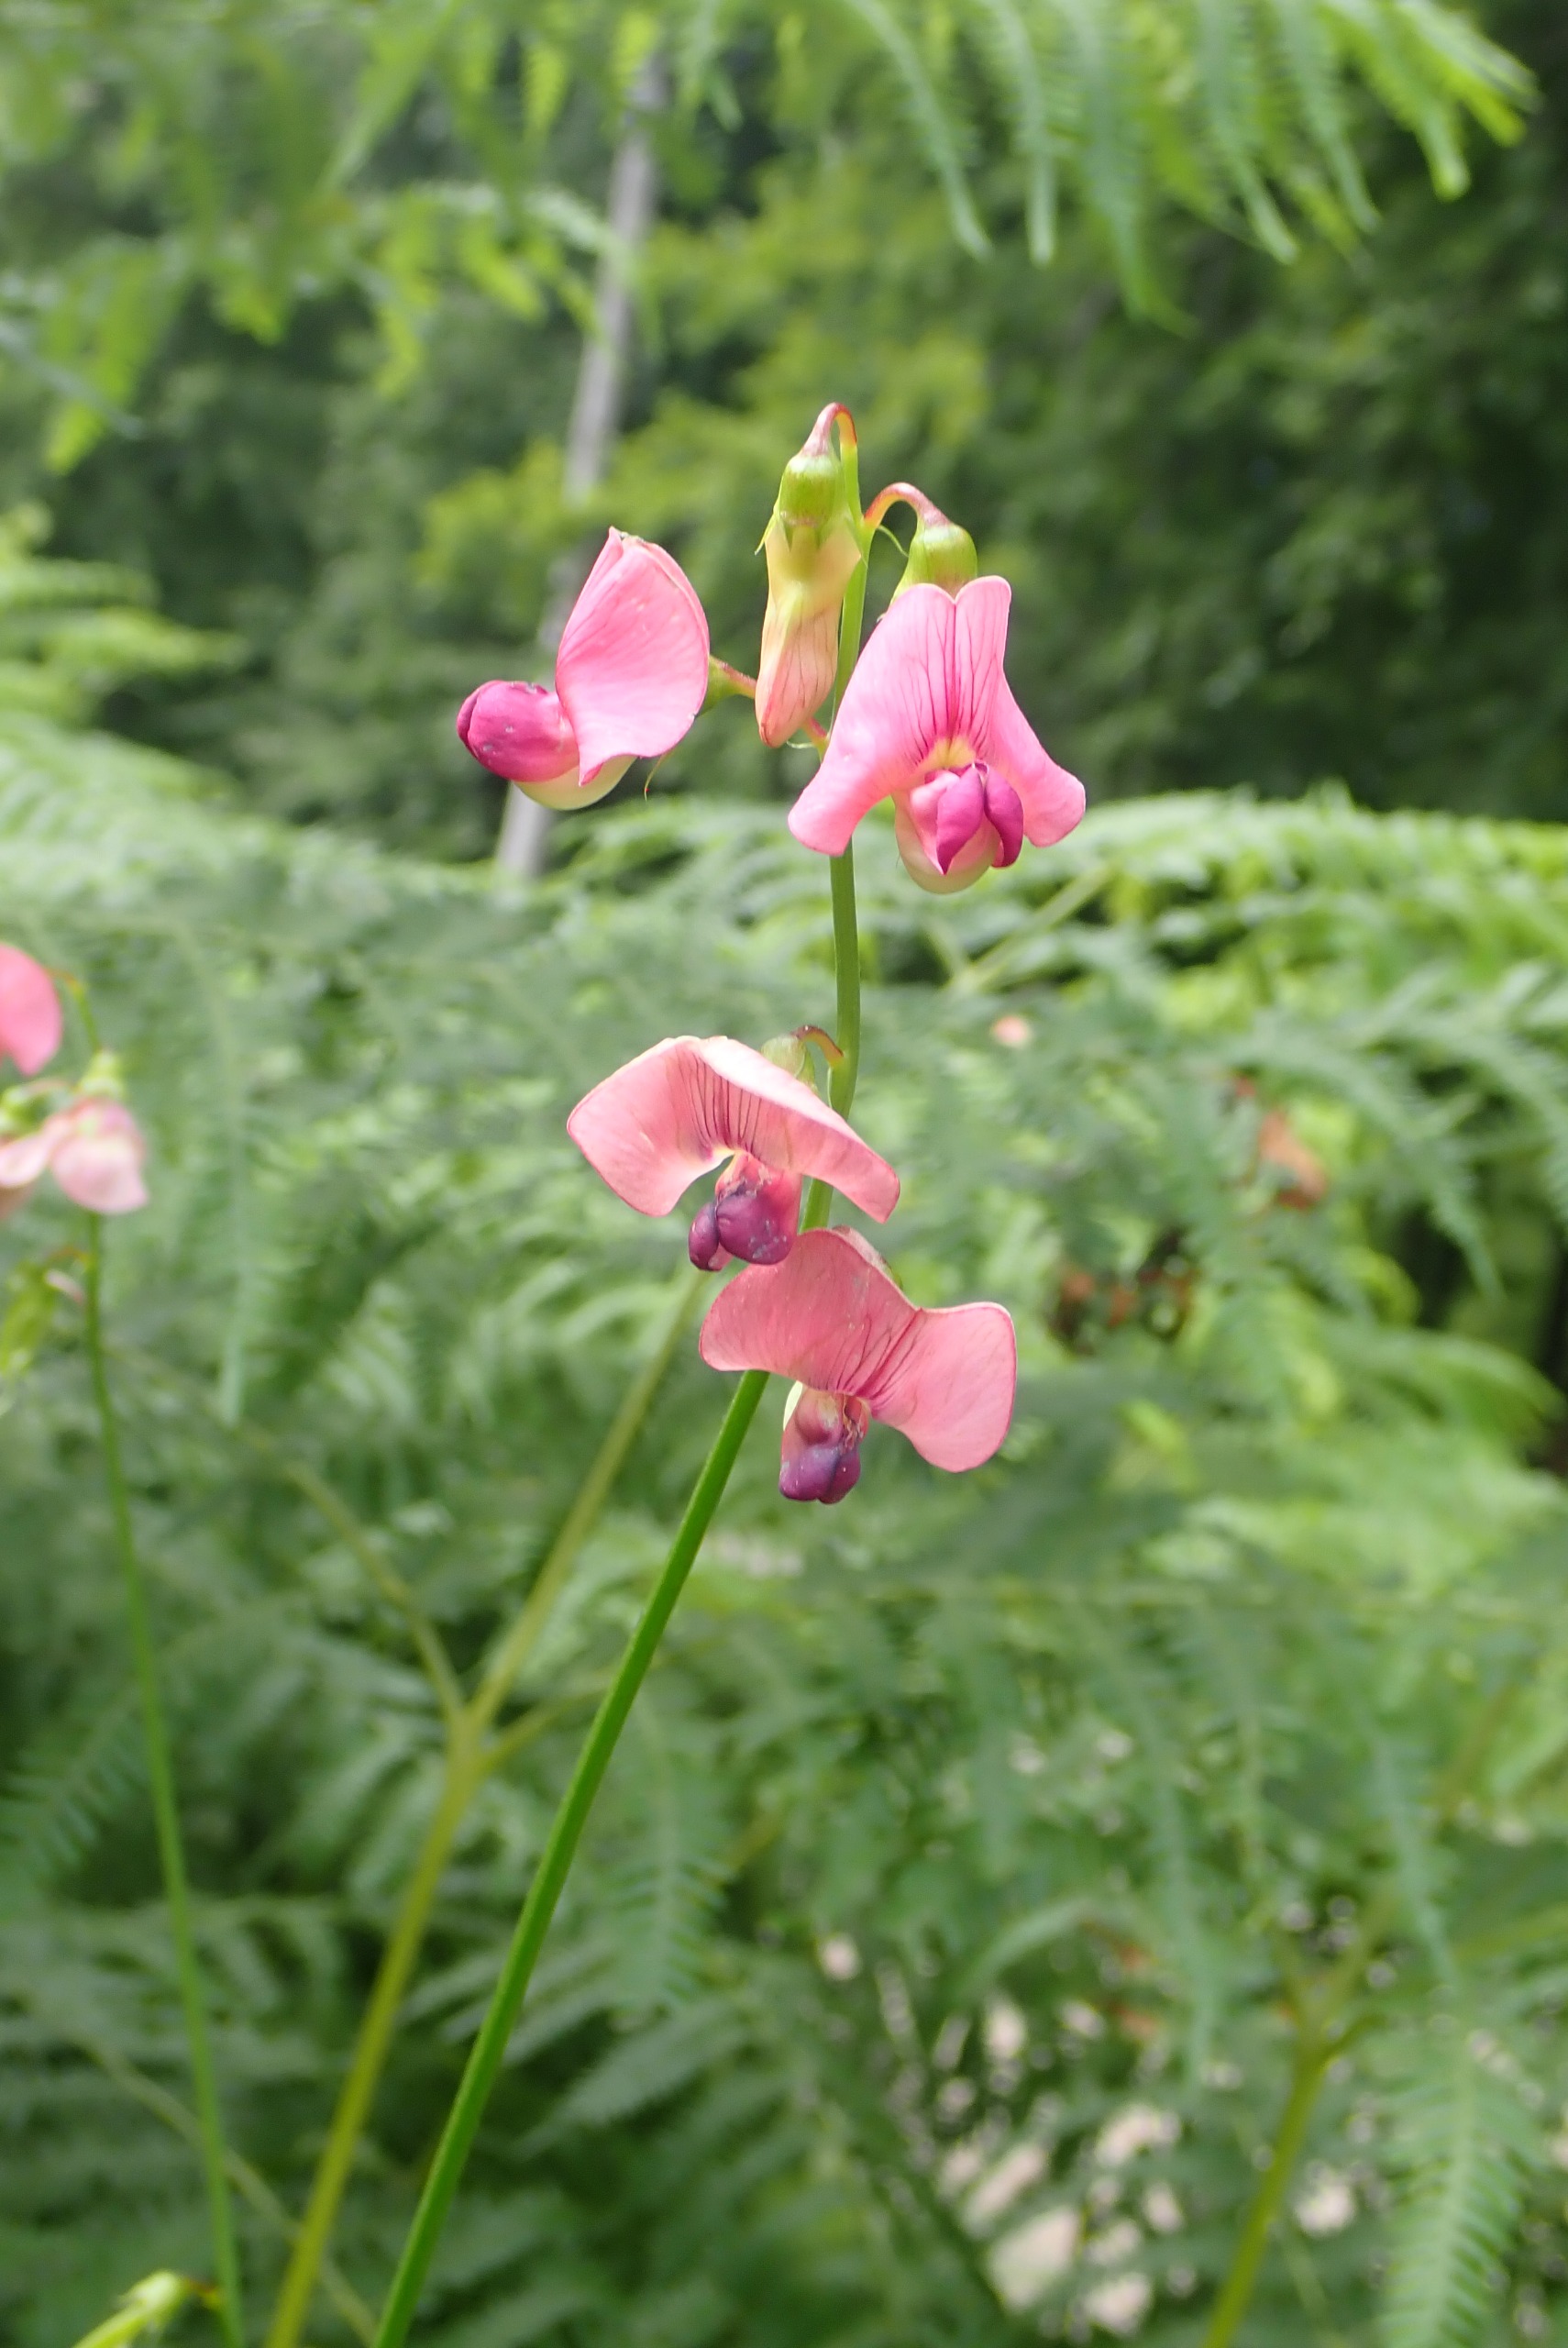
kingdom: Plantae
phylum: Tracheophyta
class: Magnoliopsida
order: Fabales
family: Fabaceae
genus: Lathyrus
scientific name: Lathyrus sylvestris
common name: Skov-fladbælg
